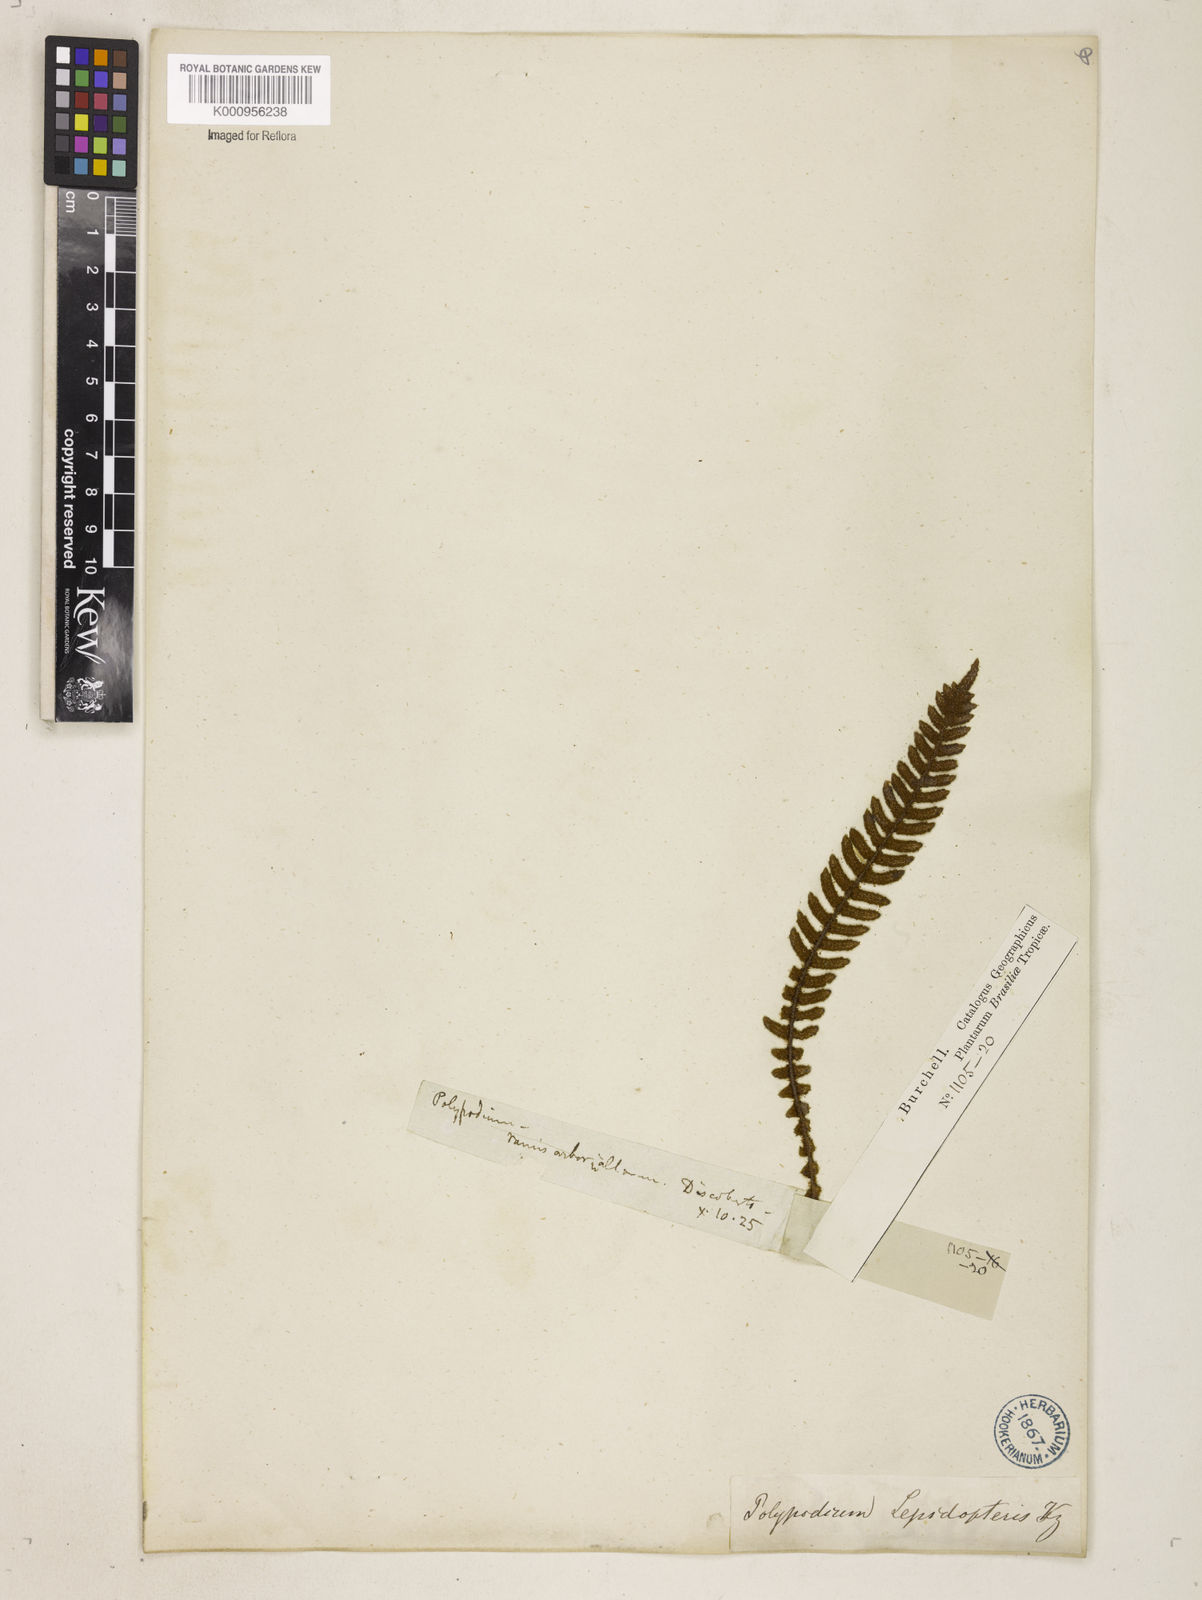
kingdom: Plantae
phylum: Tracheophyta
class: Polypodiopsida
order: Polypodiales
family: Polypodiaceae
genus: Pleopeltis
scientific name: Pleopeltis hirsutissima
